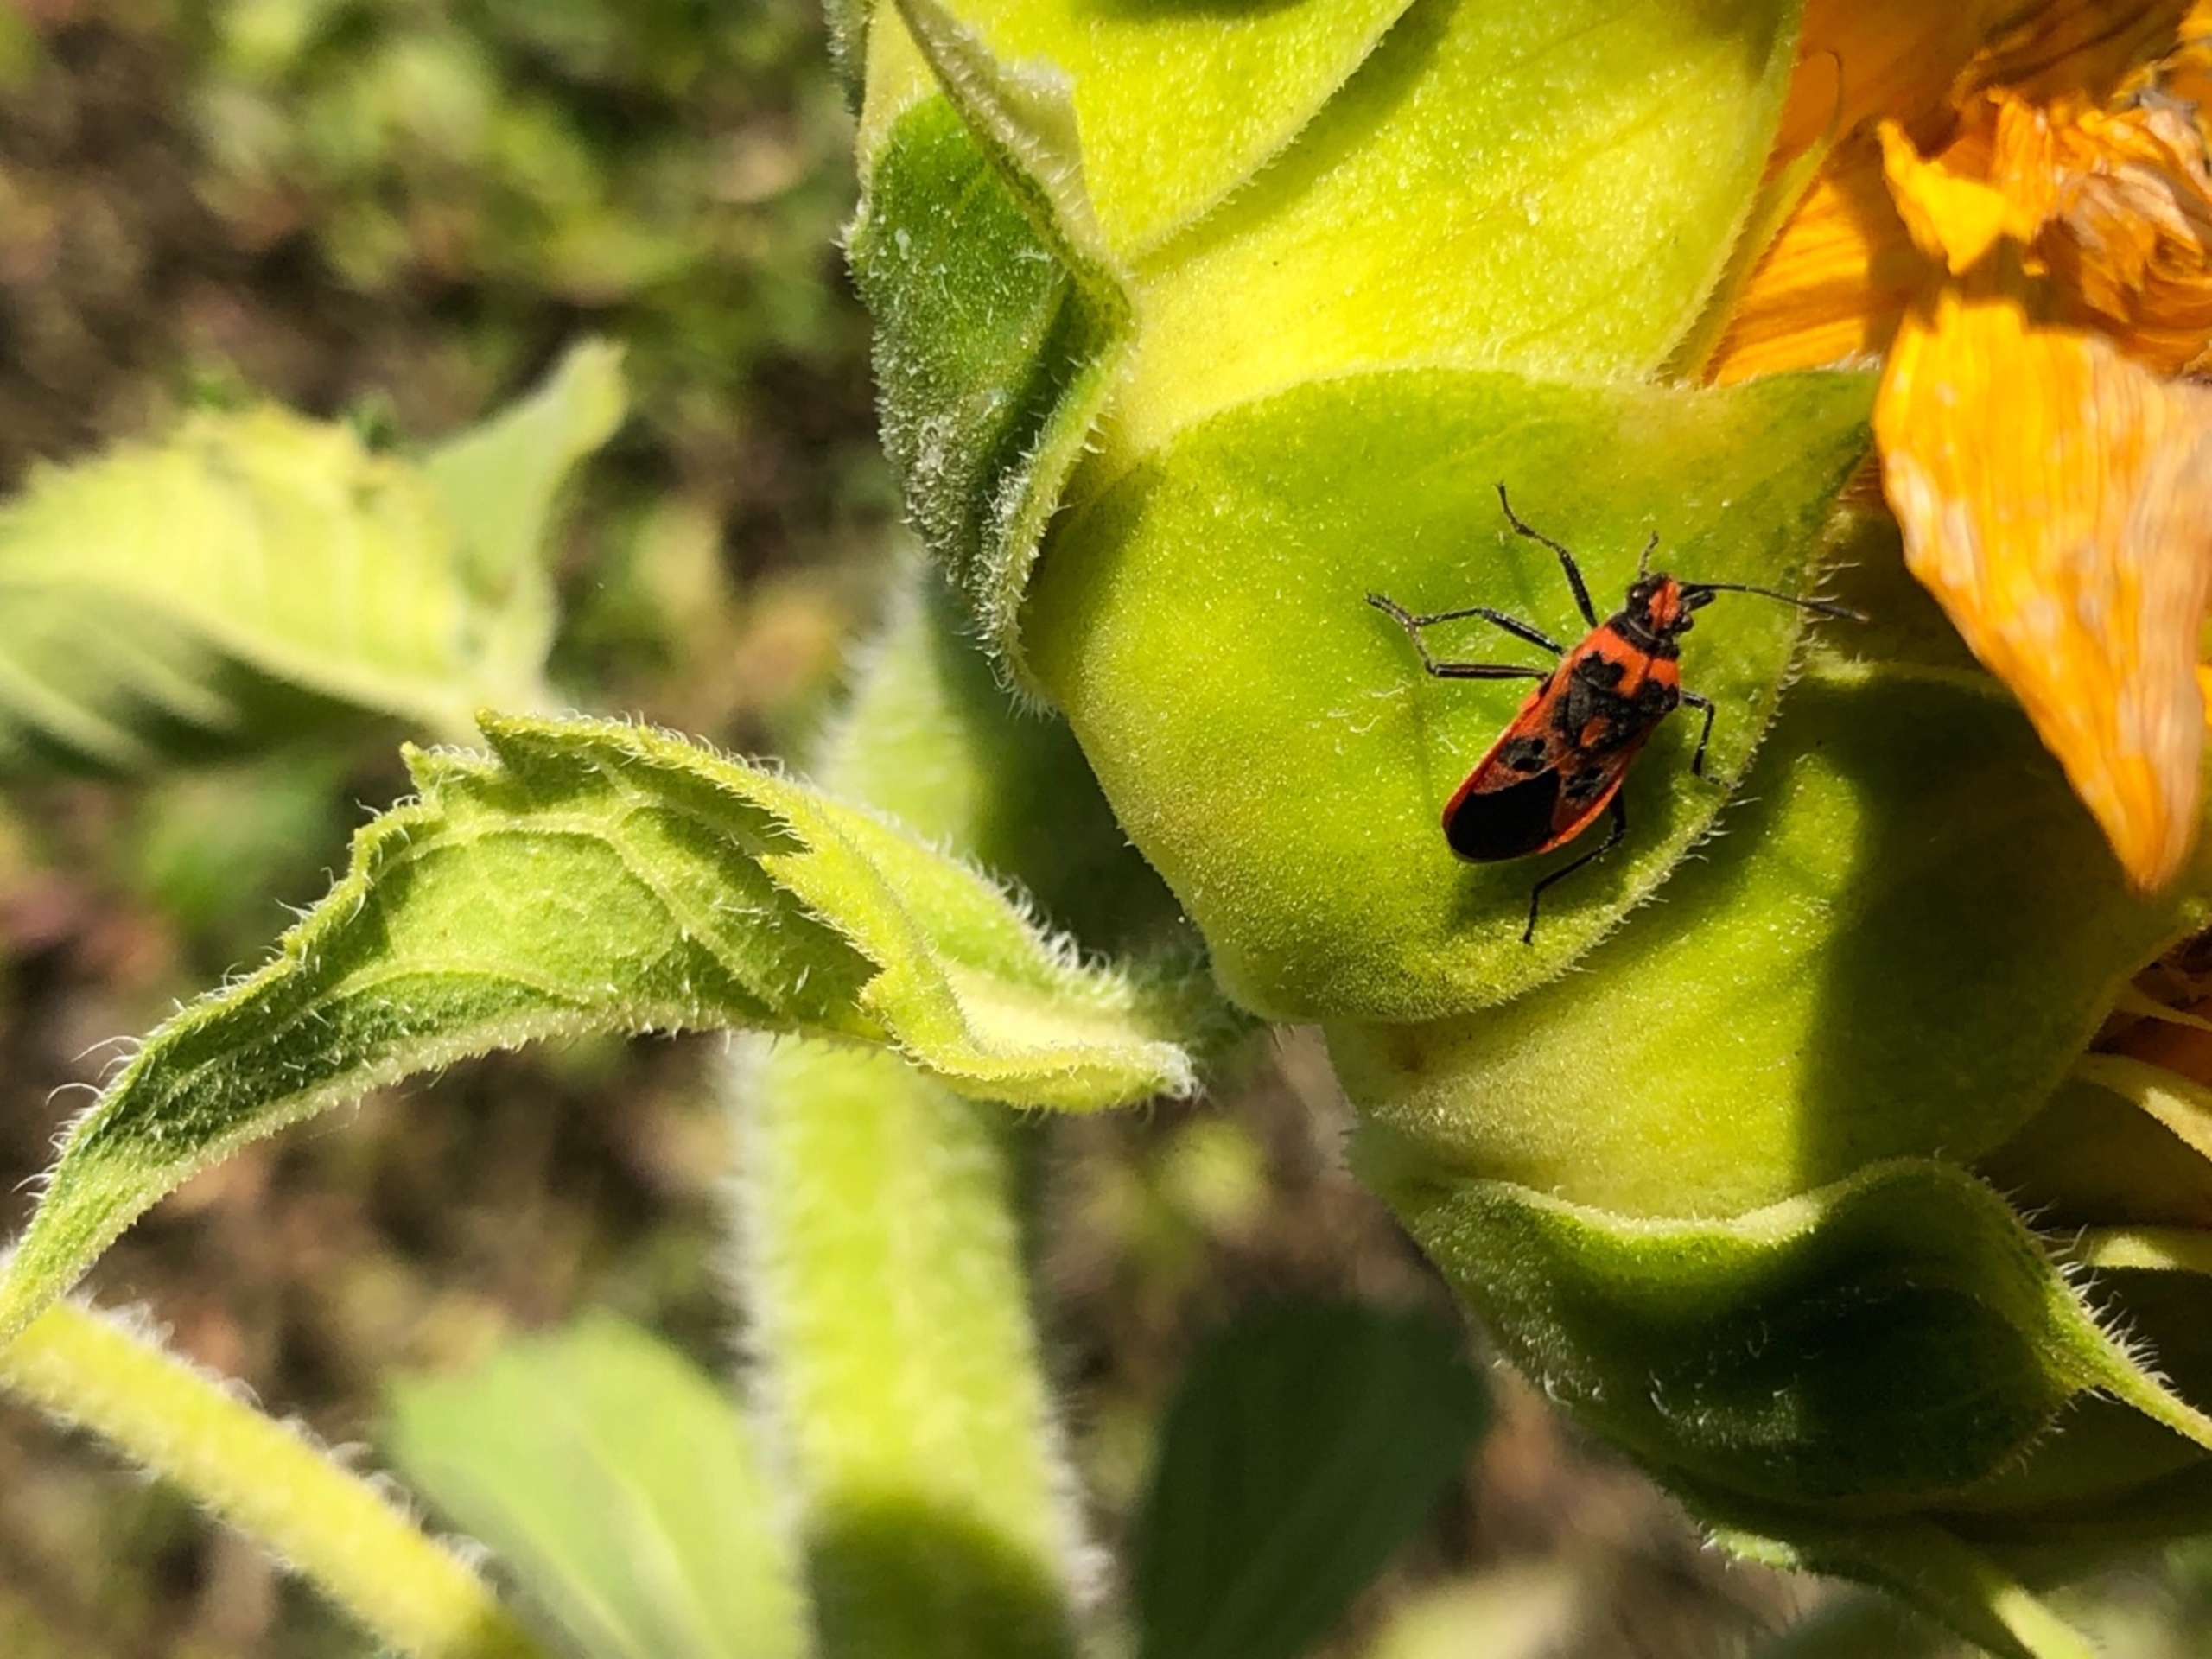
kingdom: Animalia
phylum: Arthropoda
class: Insecta
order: Hemiptera
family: Rhopalidae
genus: Corizus
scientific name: Corizus hyoscyami
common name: Rød kanttæge
